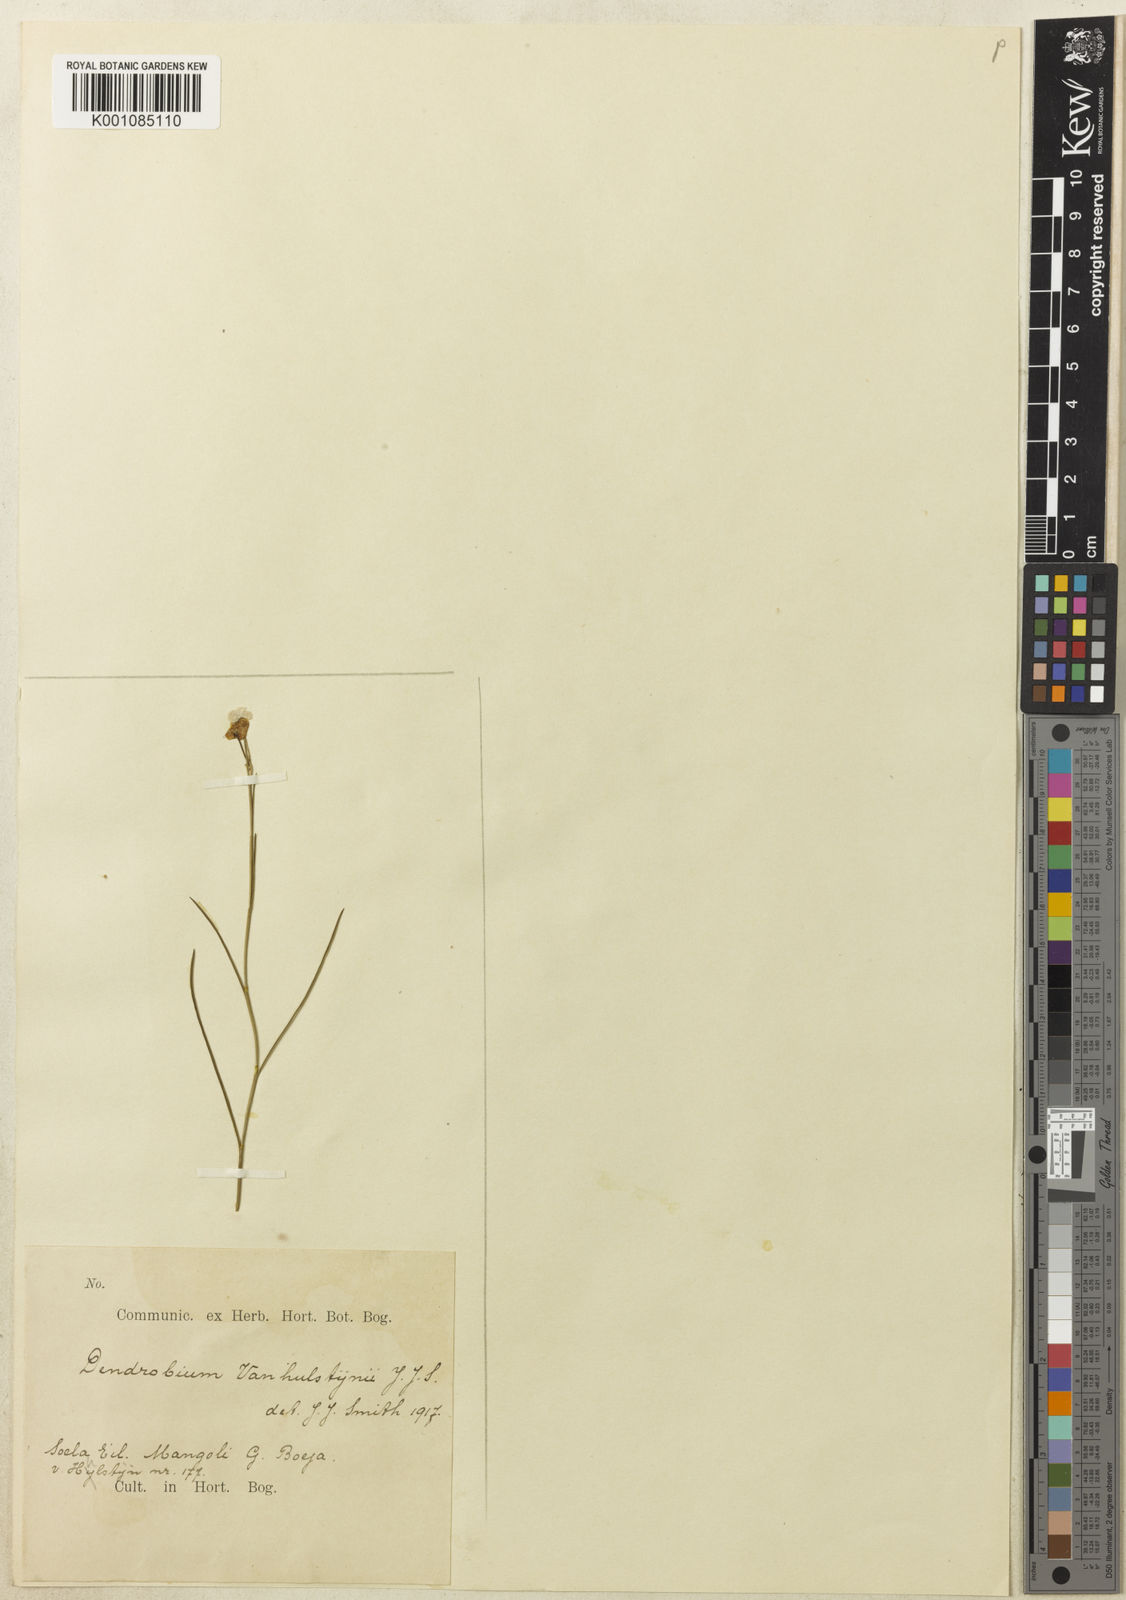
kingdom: Plantae
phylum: Tracheophyta
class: Liliopsida
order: Asparagales
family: Orchidaceae
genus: Dendrobium
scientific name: Dendrobium vanhulstijnii
